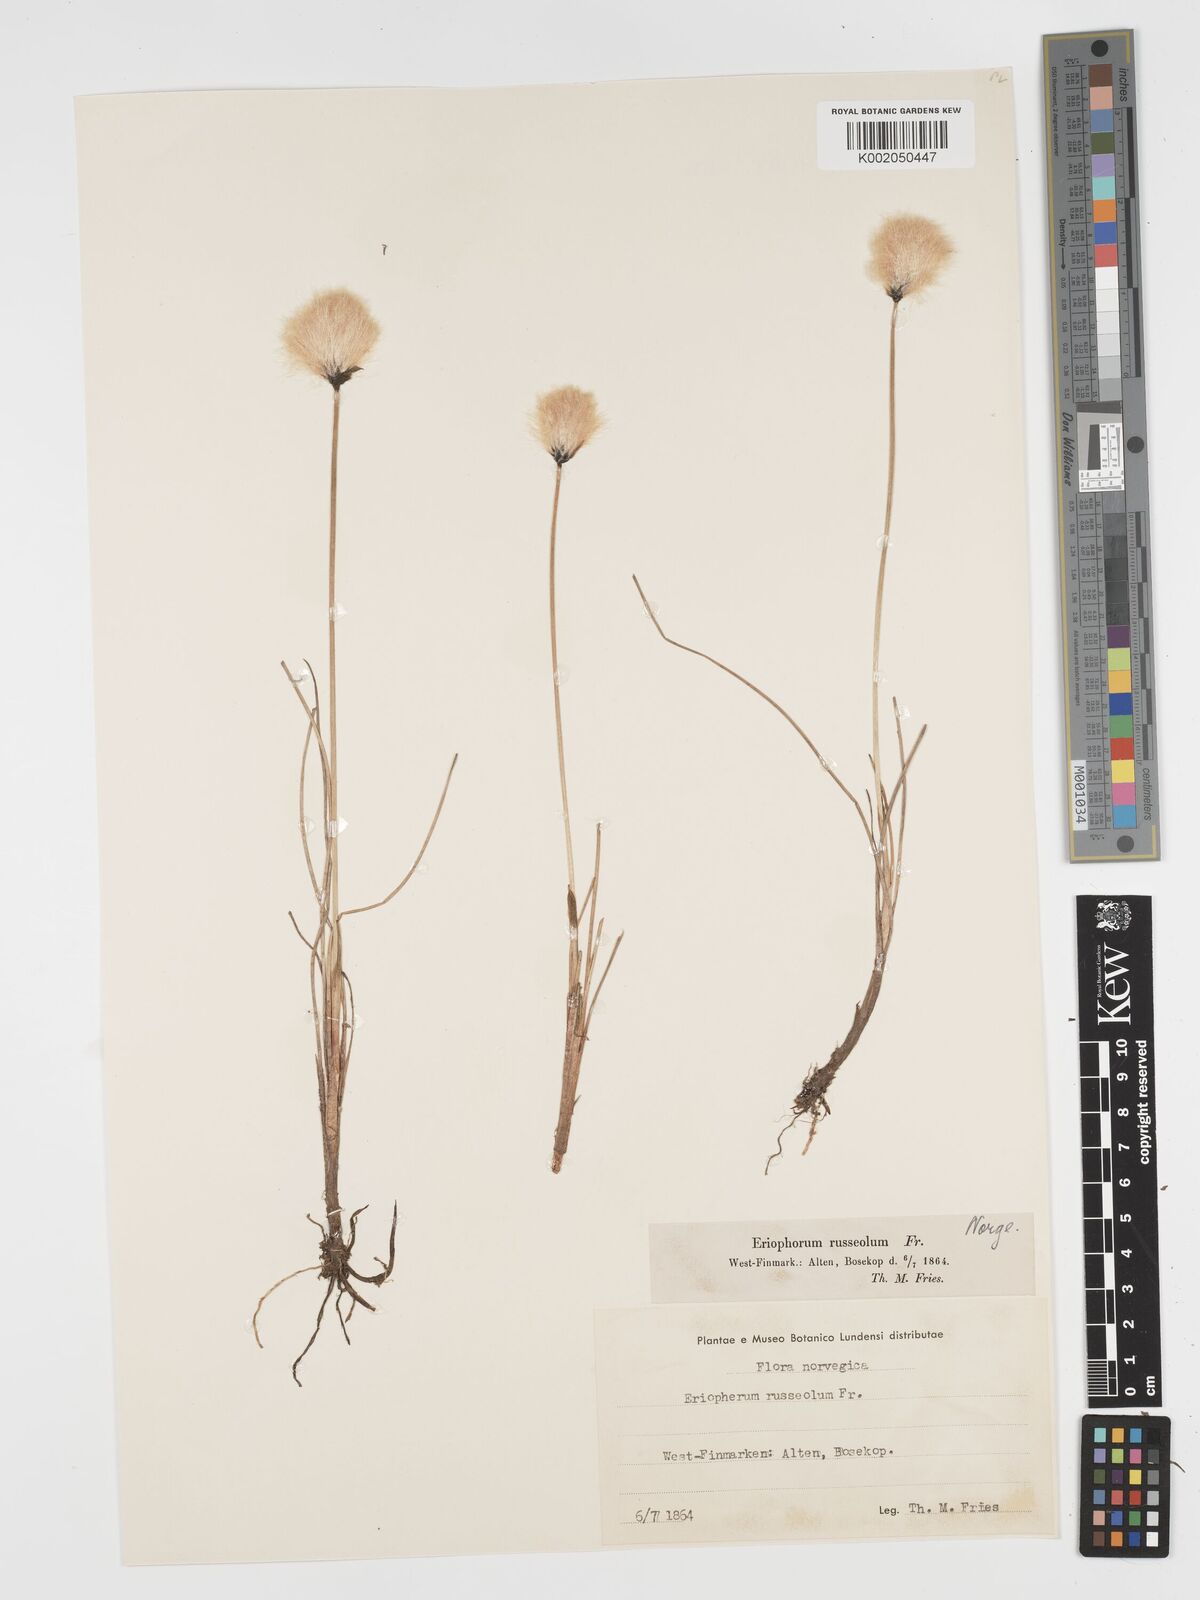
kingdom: Plantae
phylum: Tracheophyta
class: Liliopsida
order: Poales
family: Cyperaceae
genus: Eriophorum
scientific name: Eriophorum scheuchzeri
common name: Scheuchzer's cottongrass
